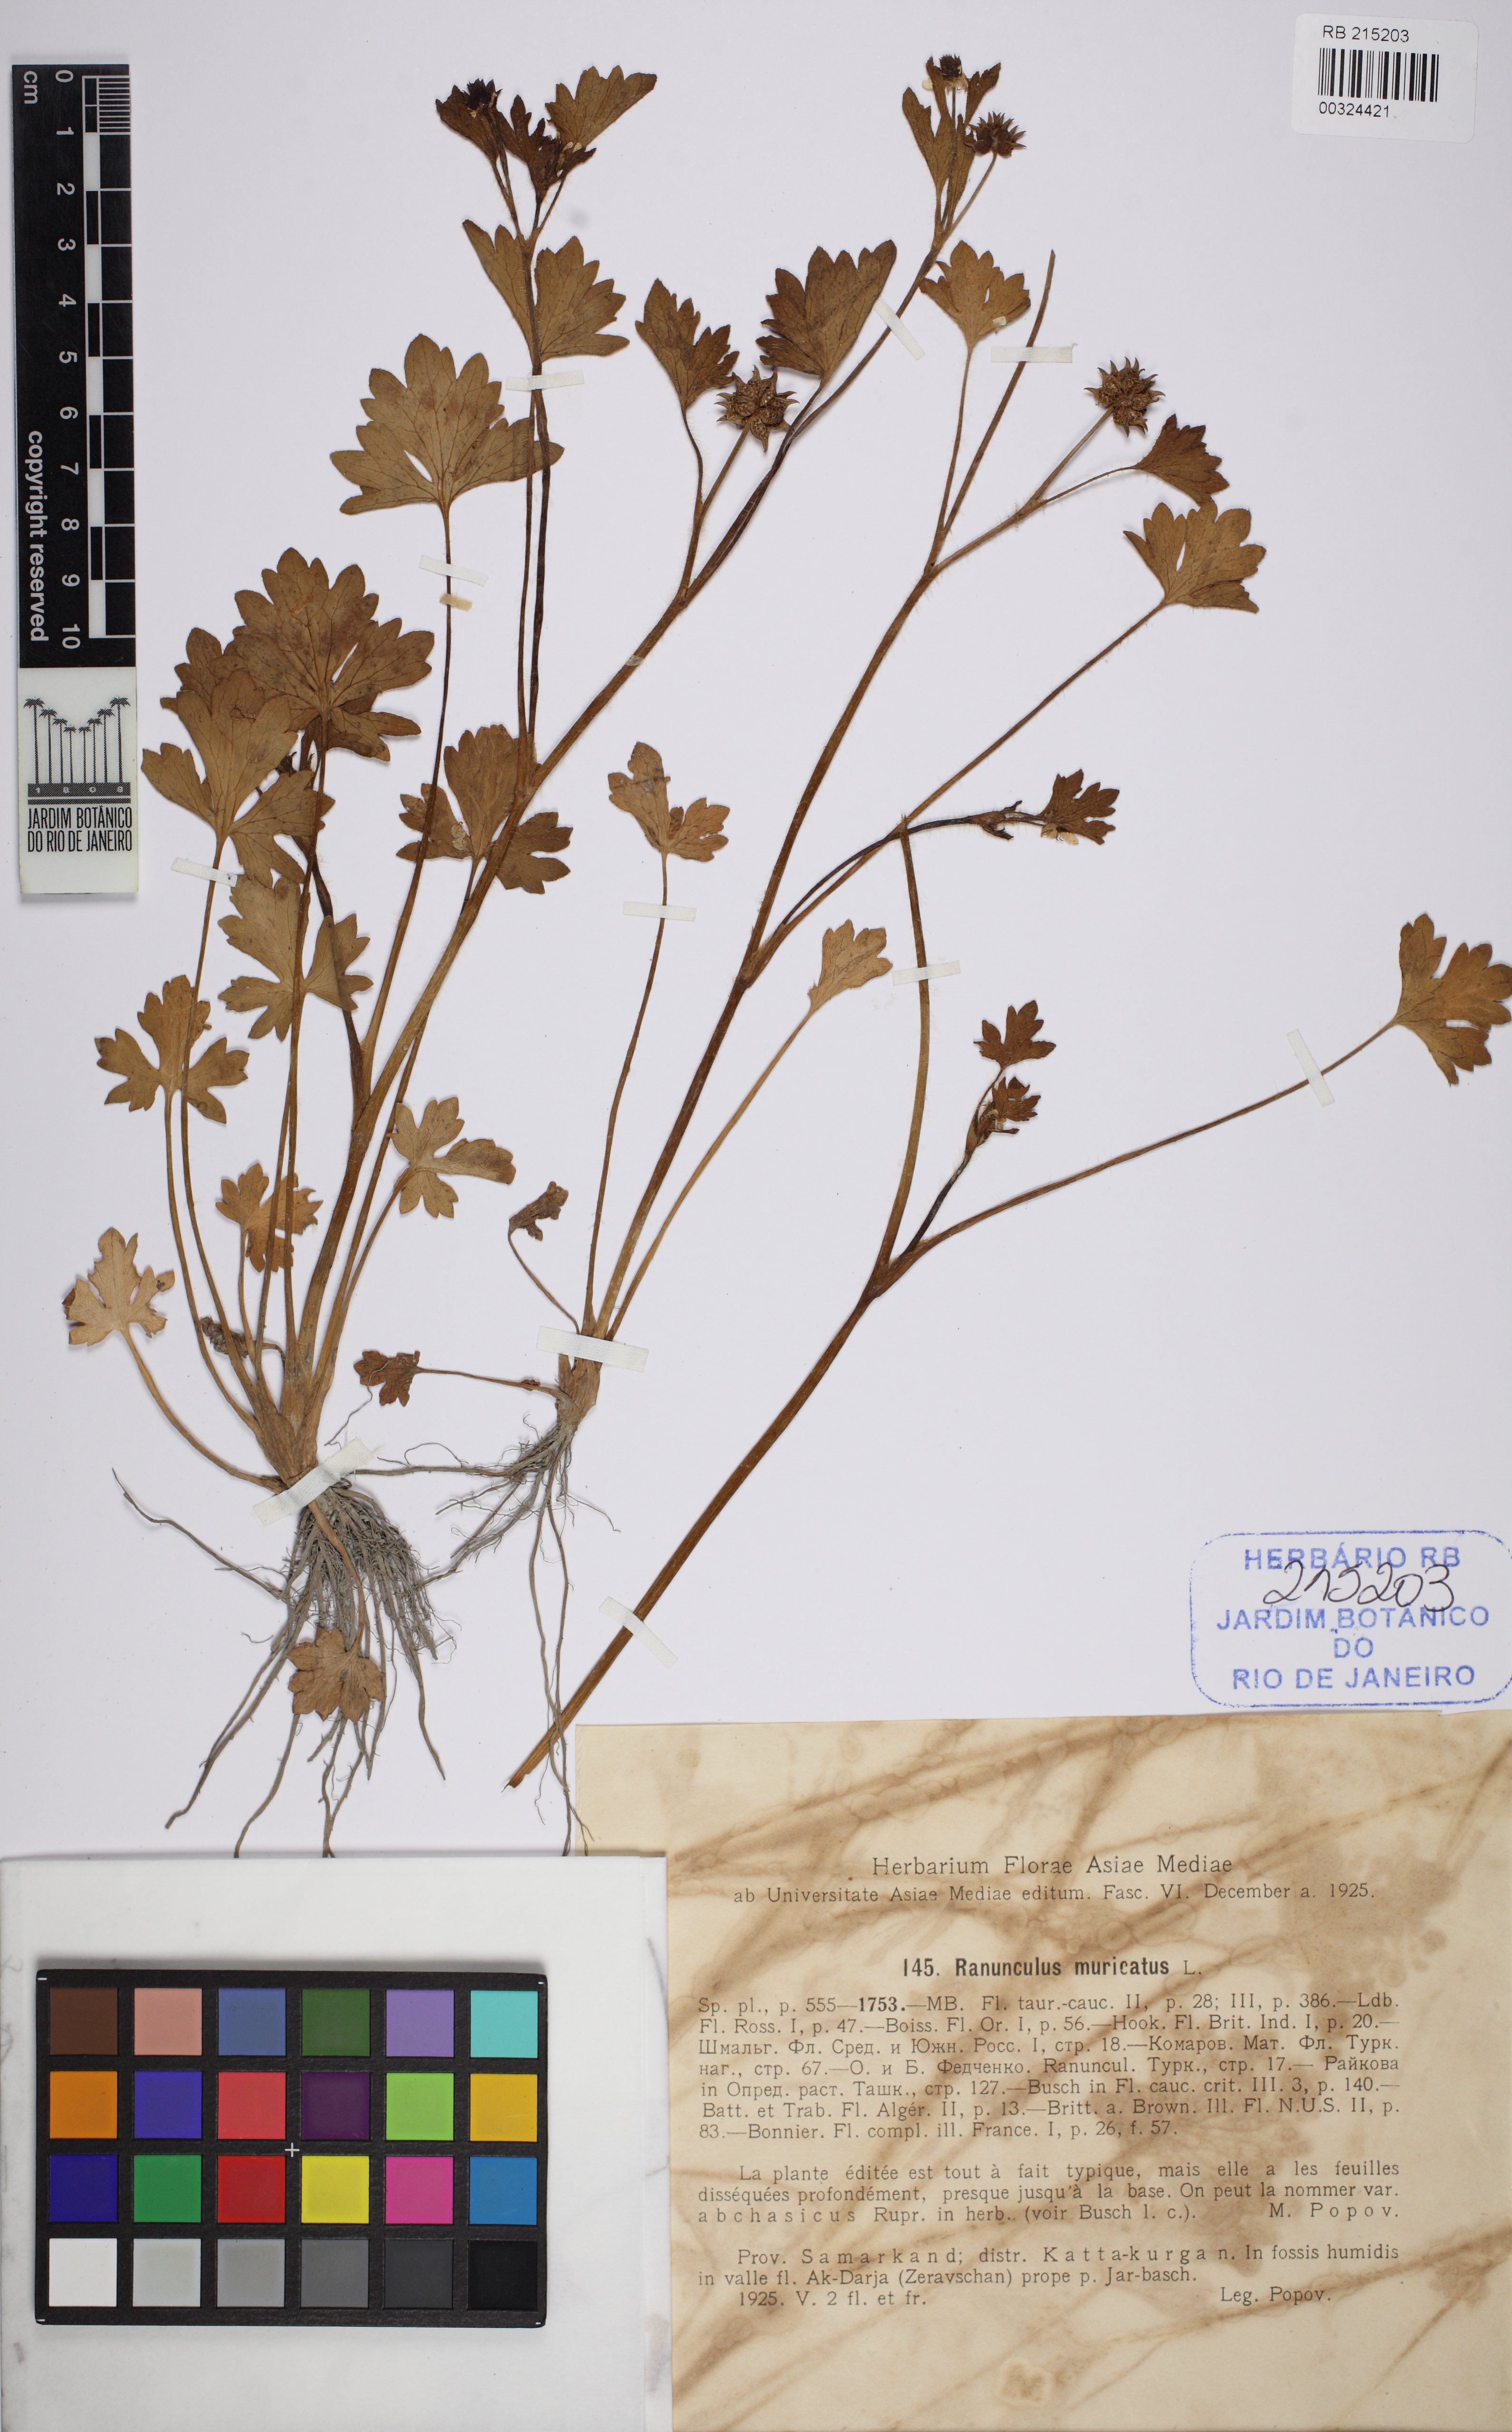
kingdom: Plantae
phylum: Tracheophyta
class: Magnoliopsida
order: Ranunculales
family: Ranunculaceae
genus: Ranunculus
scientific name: Ranunculus muricatus
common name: Rough-fruited buttercup
